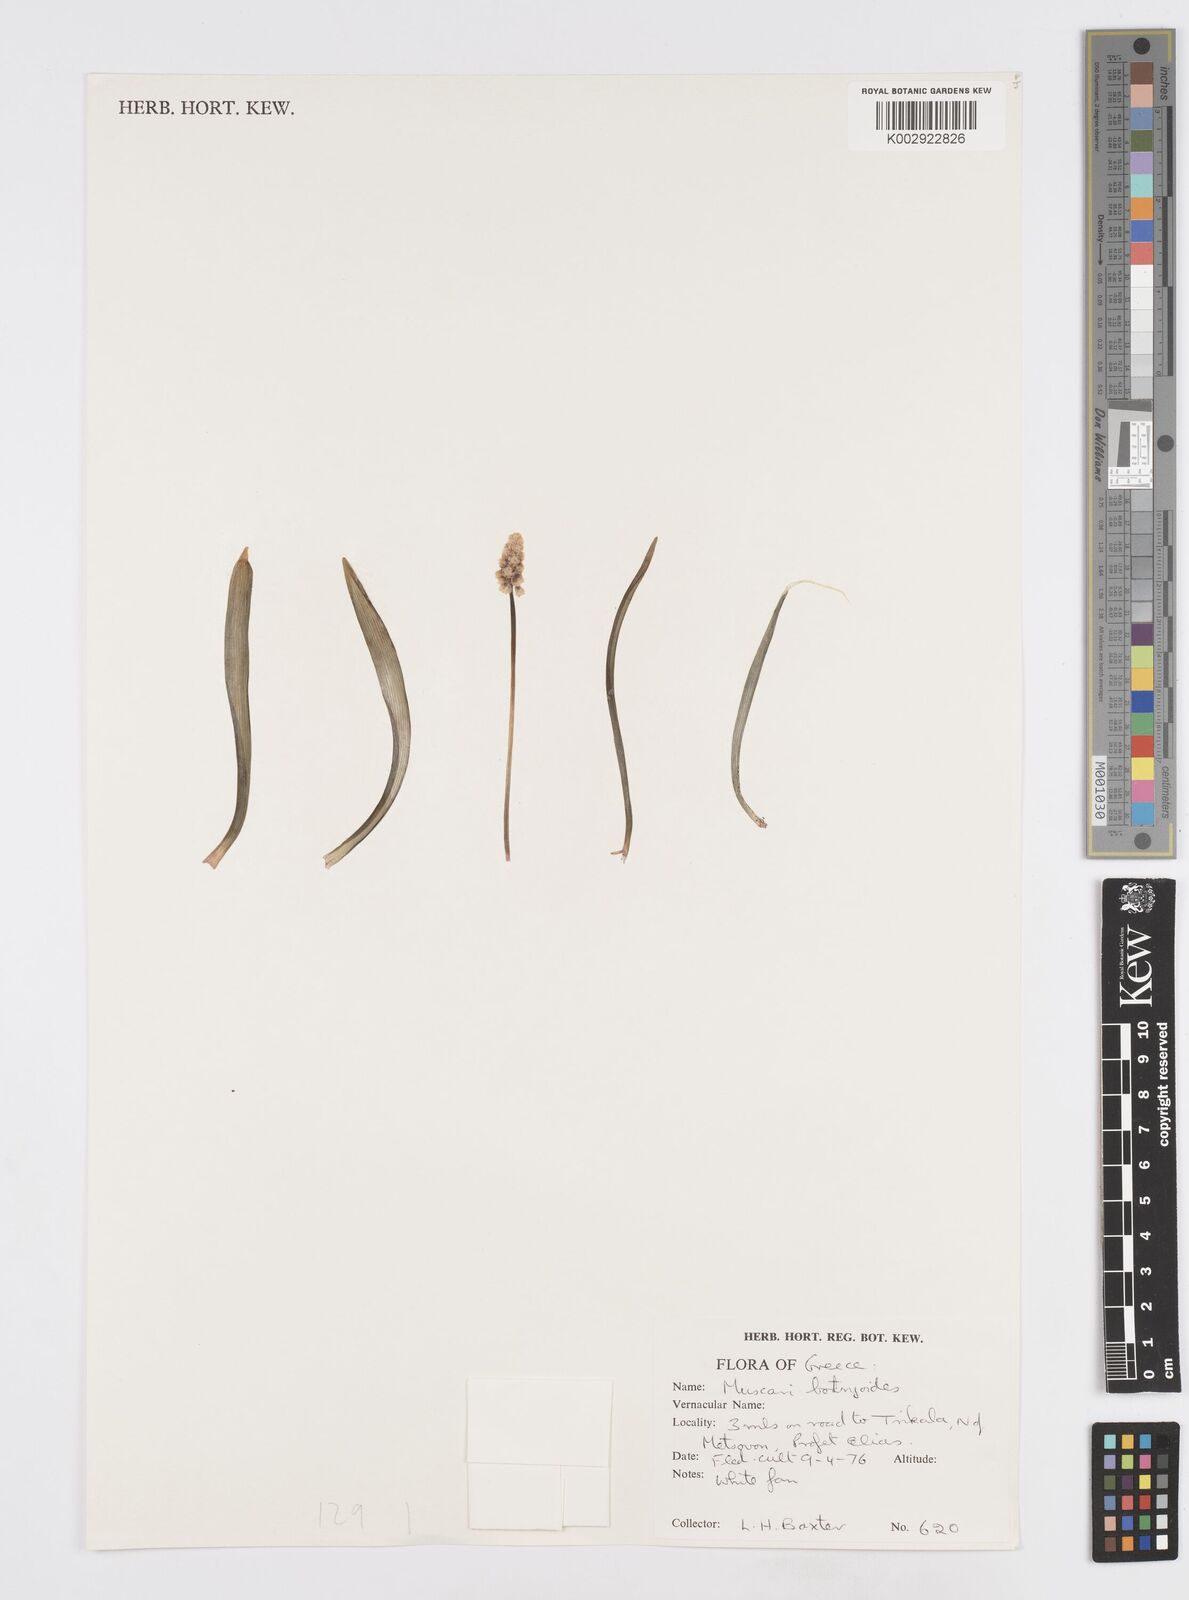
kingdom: Plantae
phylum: Tracheophyta
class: Liliopsida
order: Asparagales
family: Asparagaceae
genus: Muscari
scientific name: Muscari botryoides
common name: Compact grape-hyacinth
